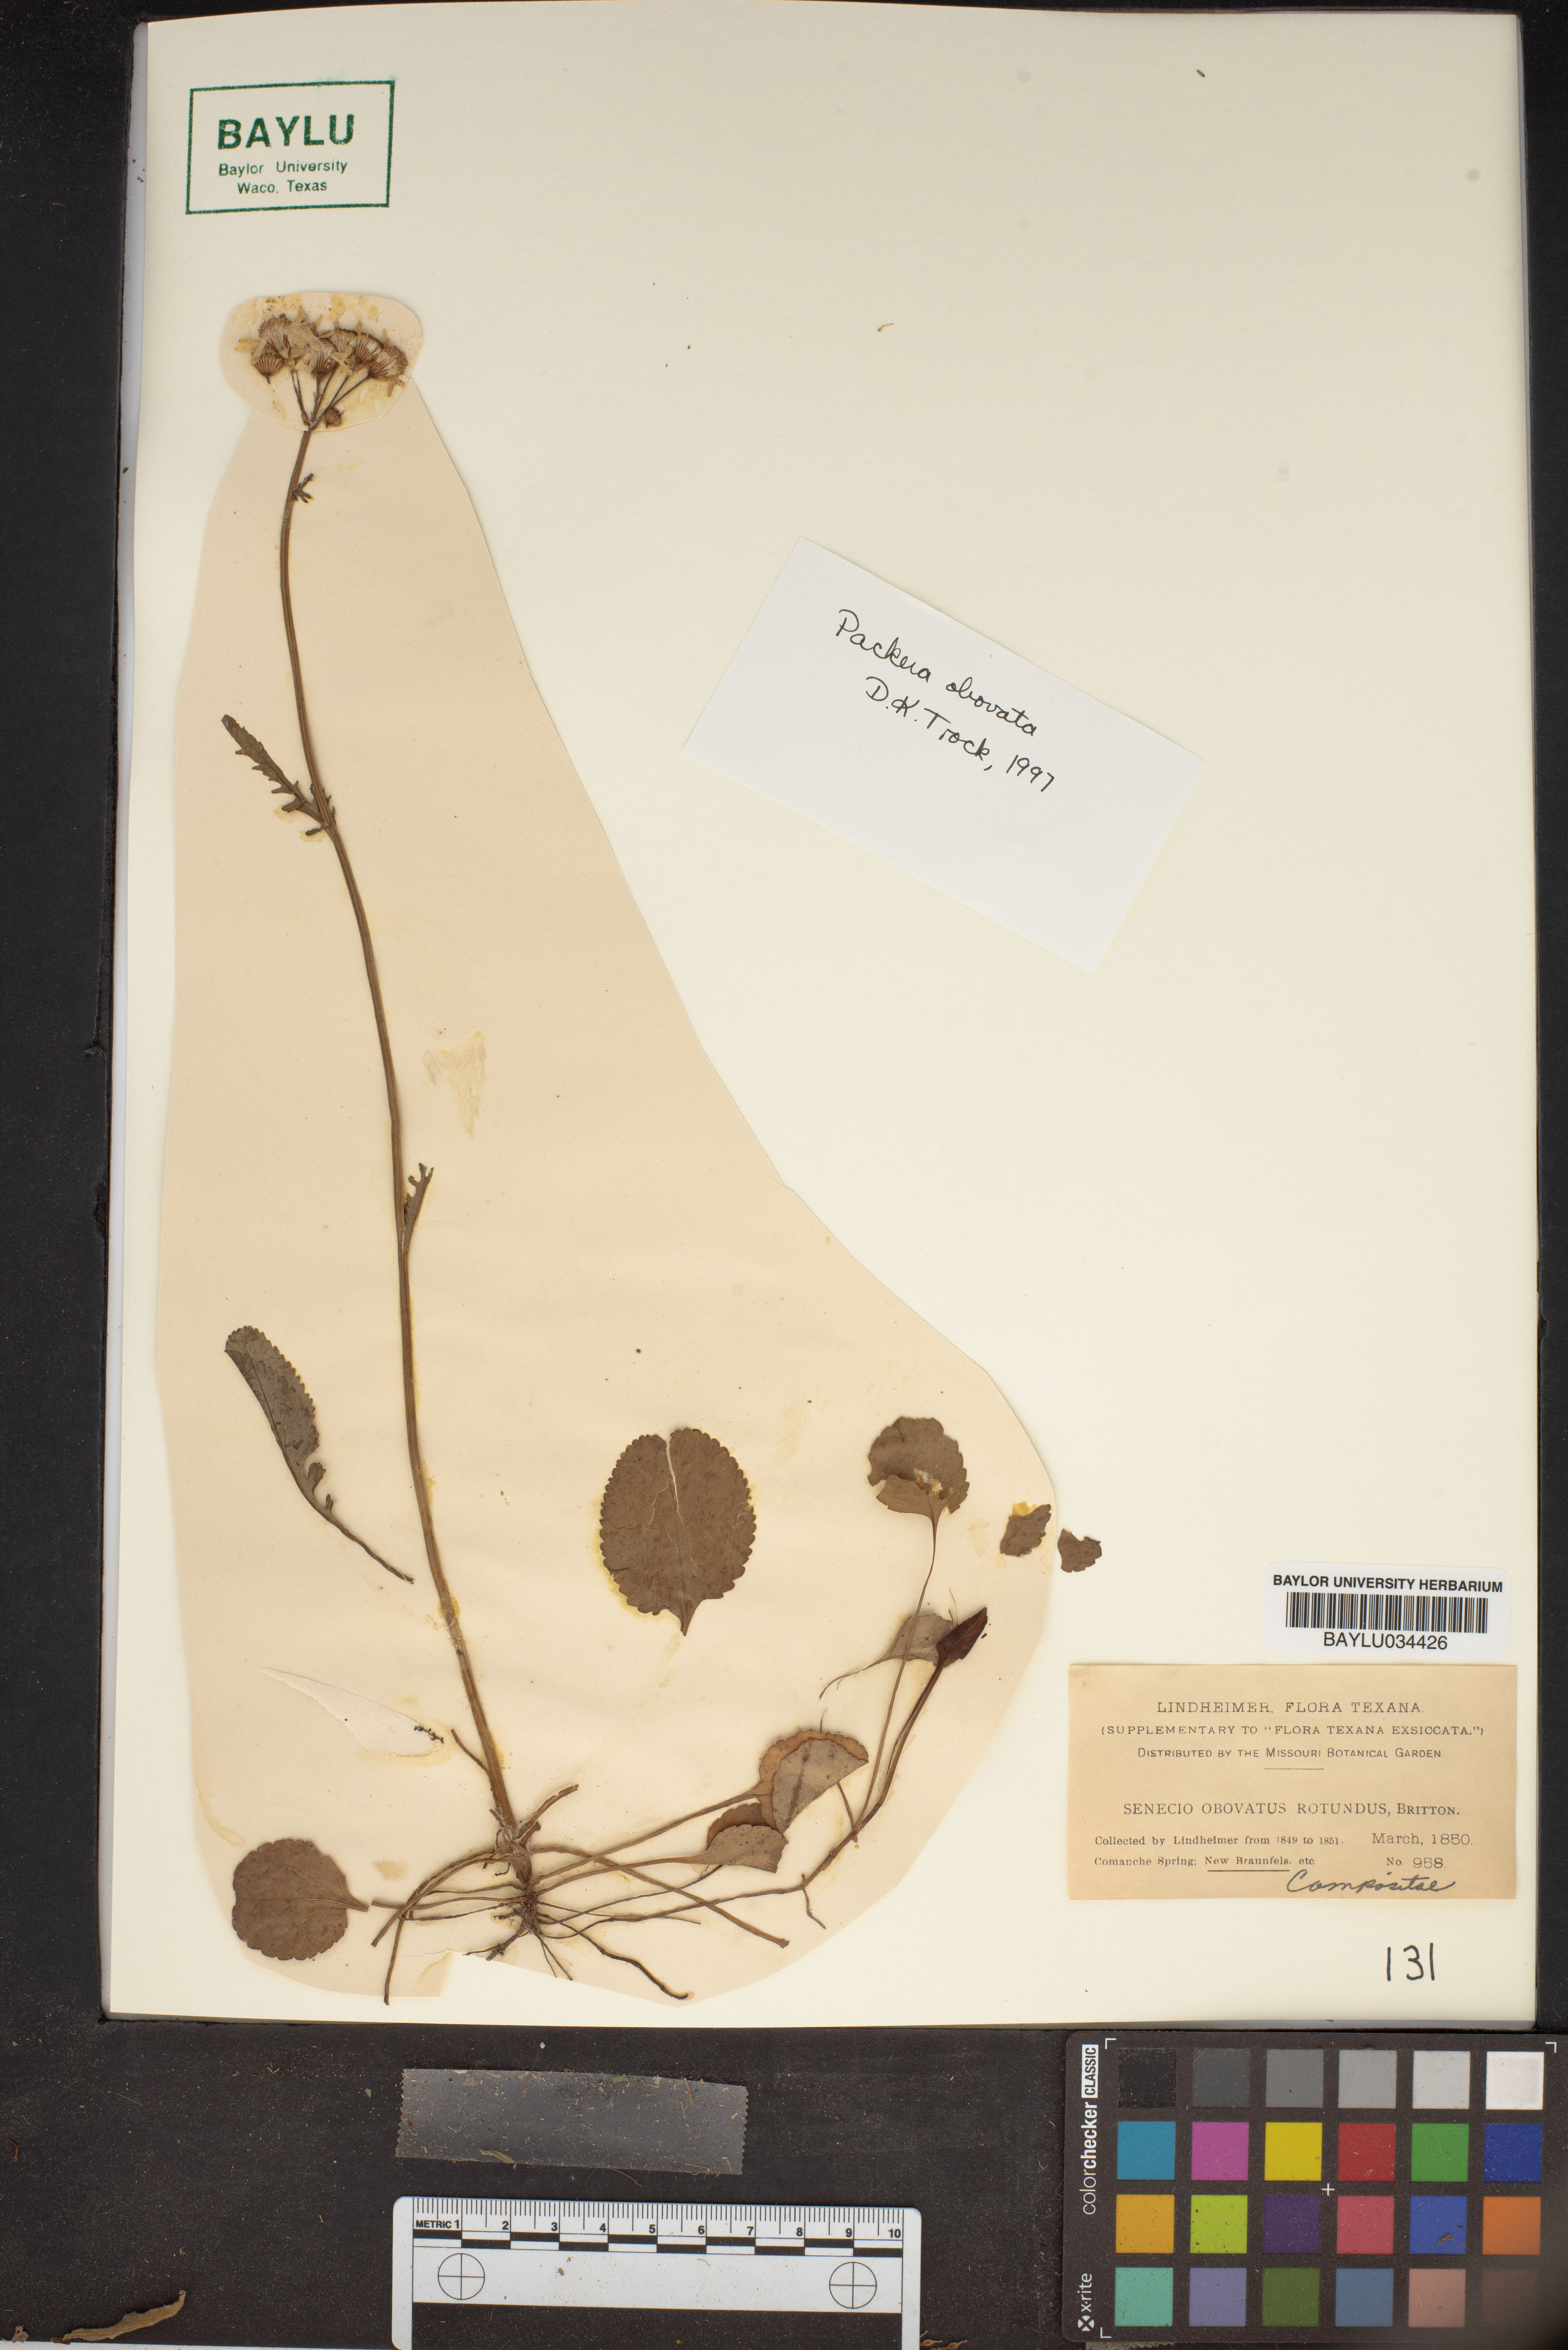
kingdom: Plantae
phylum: Tracheophyta
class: Magnoliopsida
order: Asterales
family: Asteraceae
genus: Senecio
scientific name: Senecio provincialis
